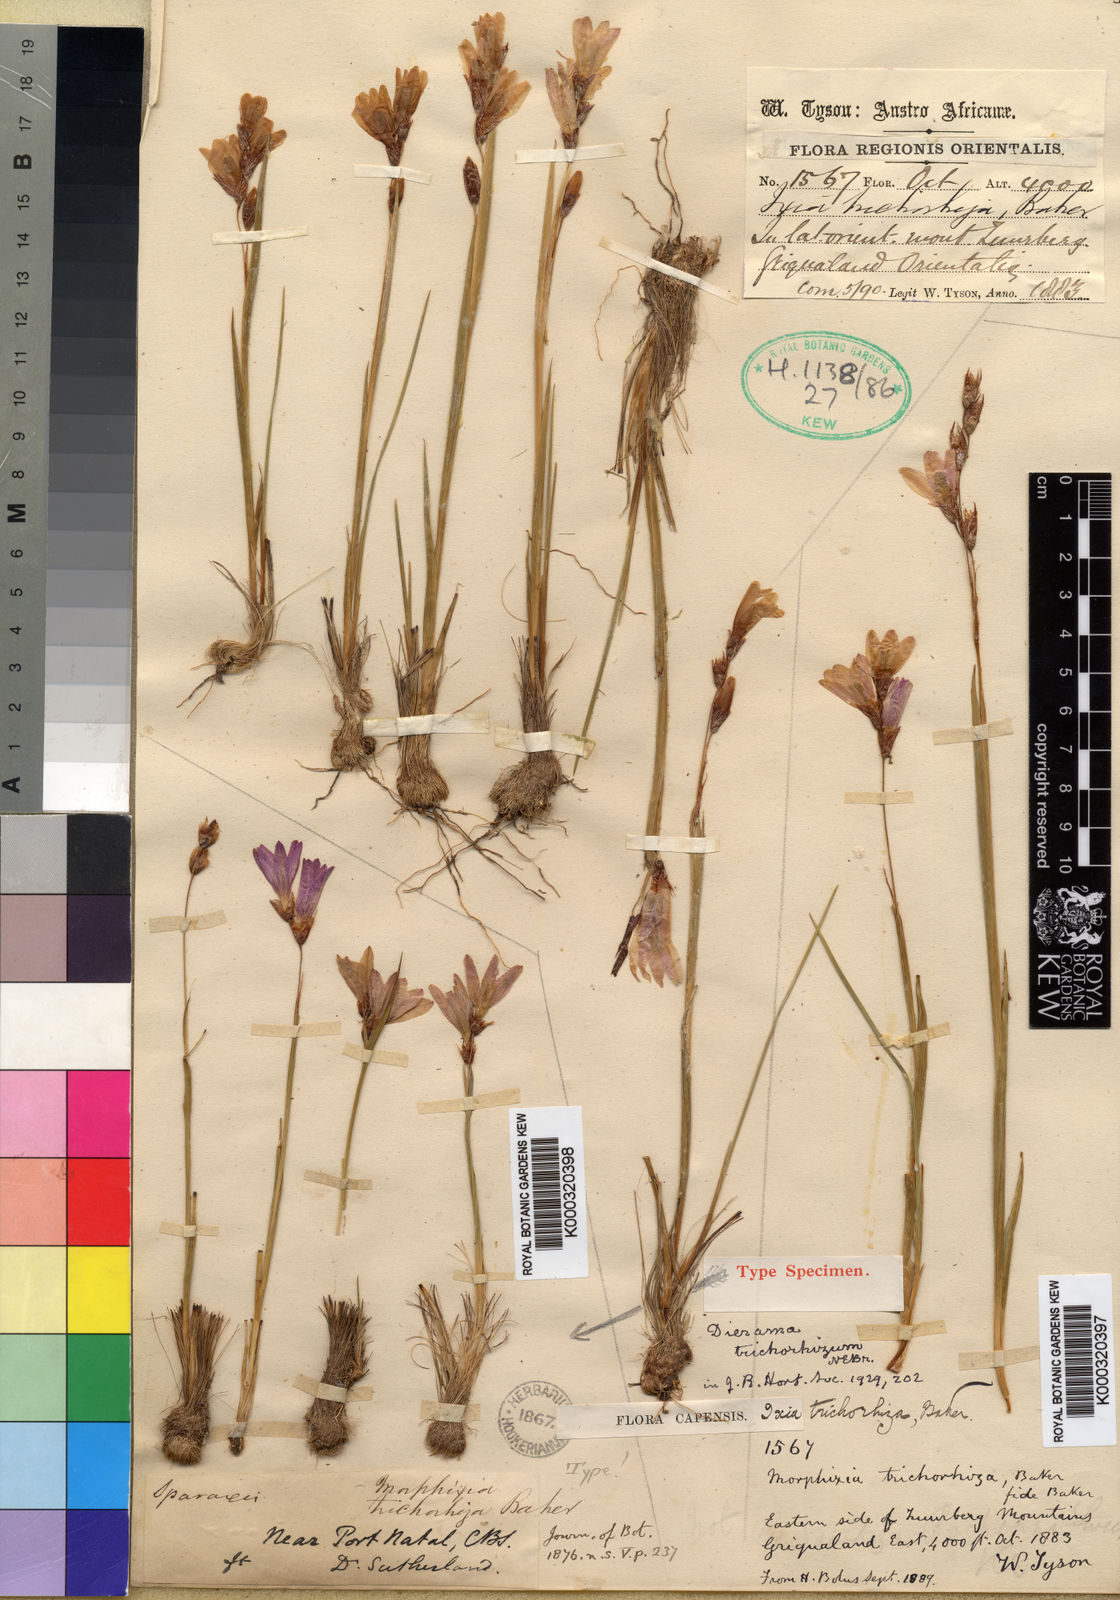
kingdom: Plantae
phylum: Tracheophyta
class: Liliopsida
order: Asparagales
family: Iridaceae
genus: Dierama
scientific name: Dierama trichorhizum
